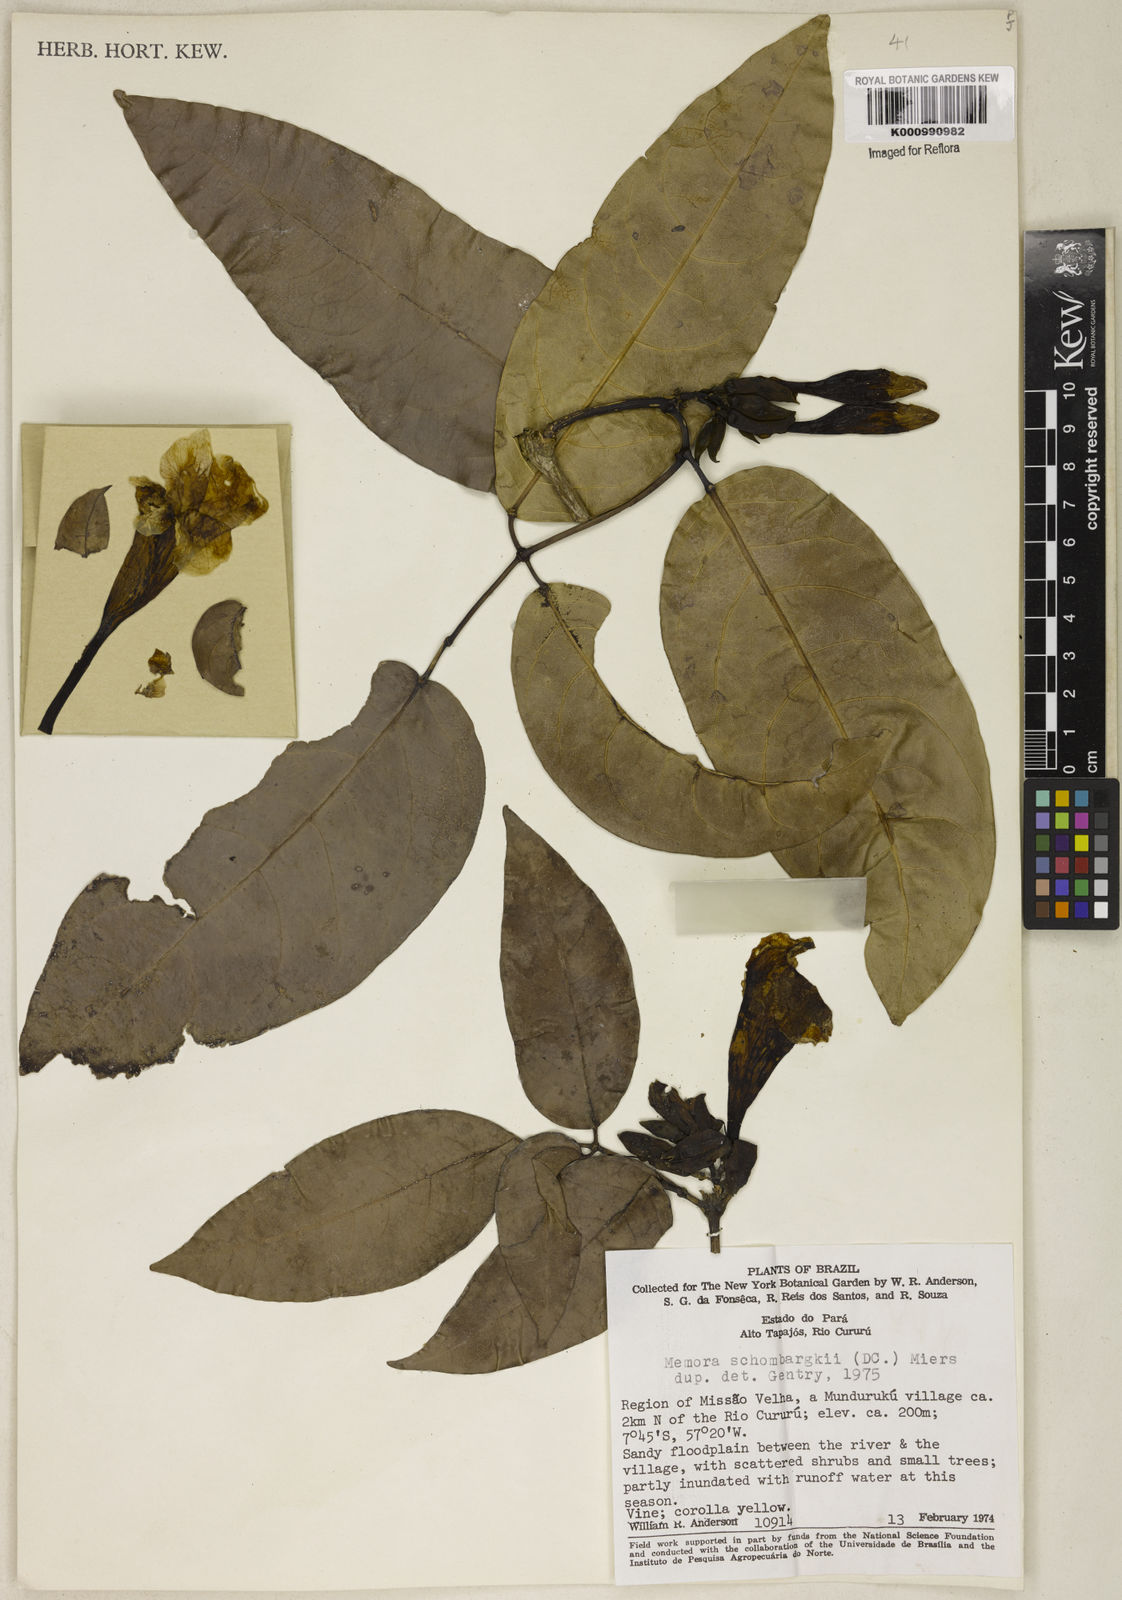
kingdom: Plantae
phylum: Tracheophyta
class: Magnoliopsida
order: Lamiales
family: Bignoniaceae
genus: Adenocalymma
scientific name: Adenocalymma schomburgkii
